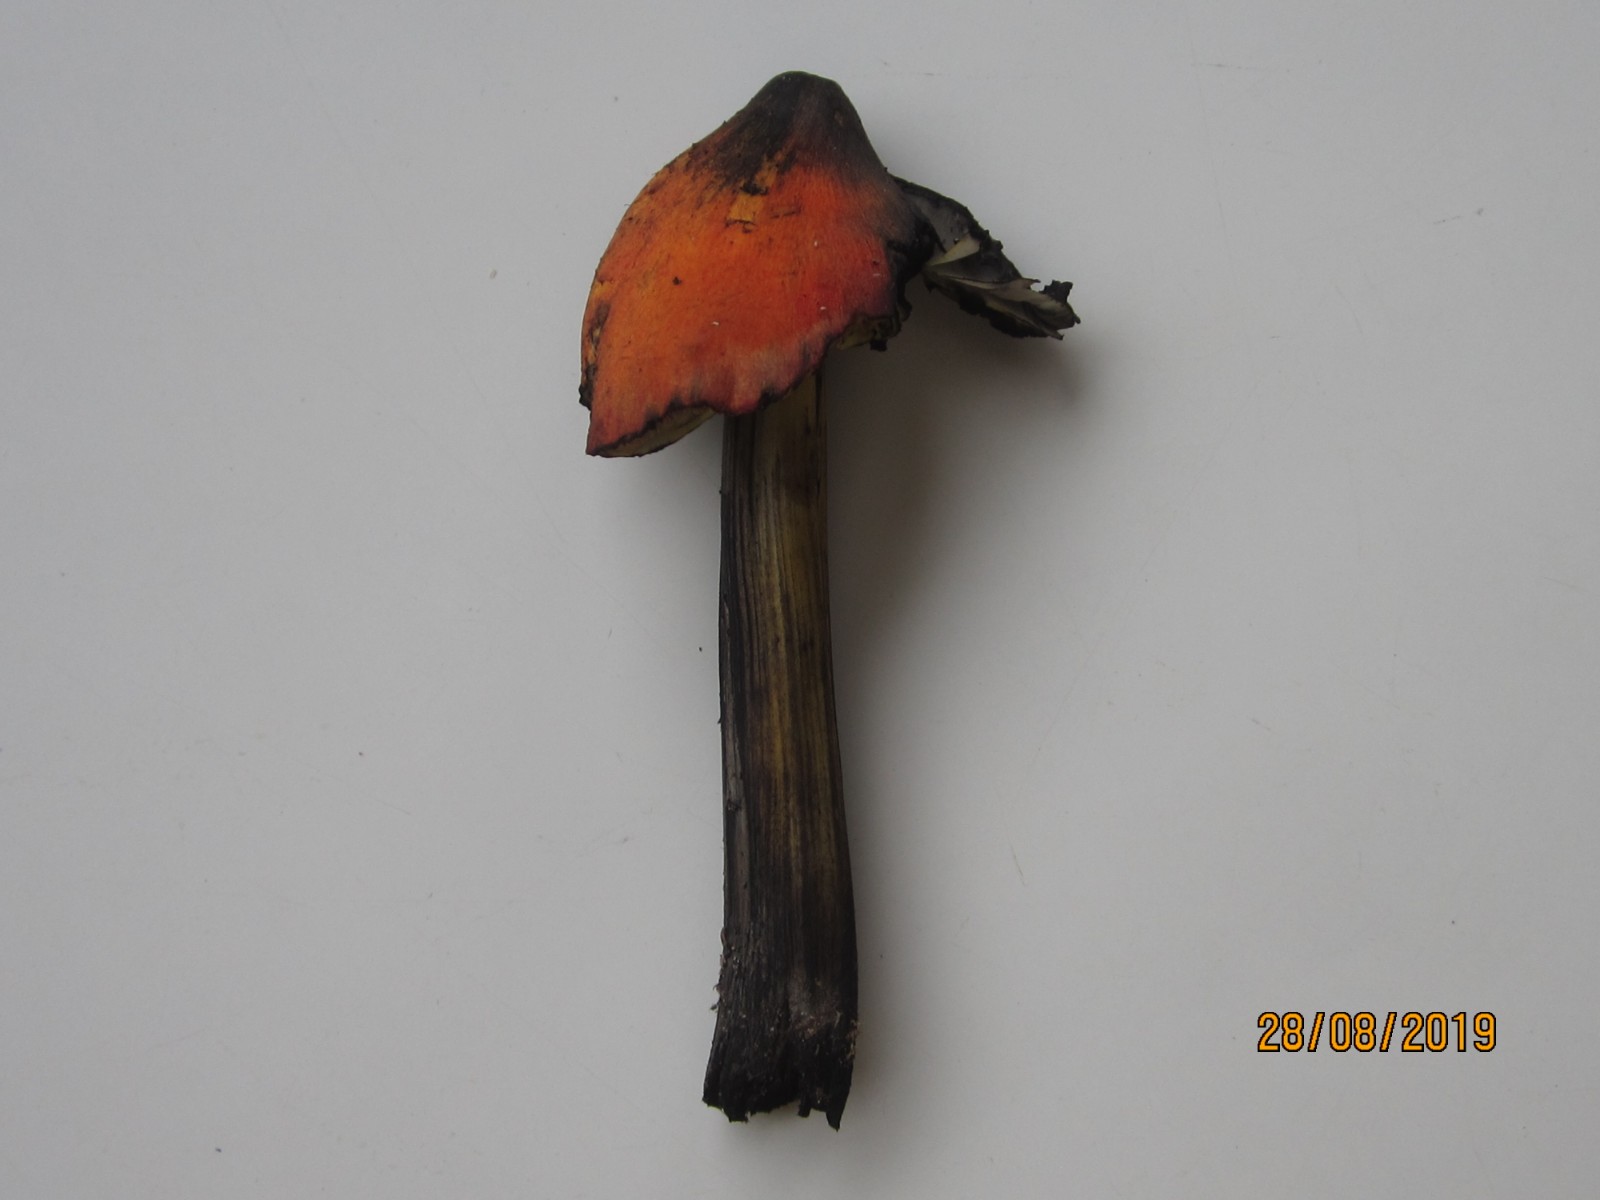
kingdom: Fungi
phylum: Basidiomycota
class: Agaricomycetes
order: Agaricales
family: Hygrophoraceae
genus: Hygrocybe
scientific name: Hygrocybe conica
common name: kegle-vokshat
